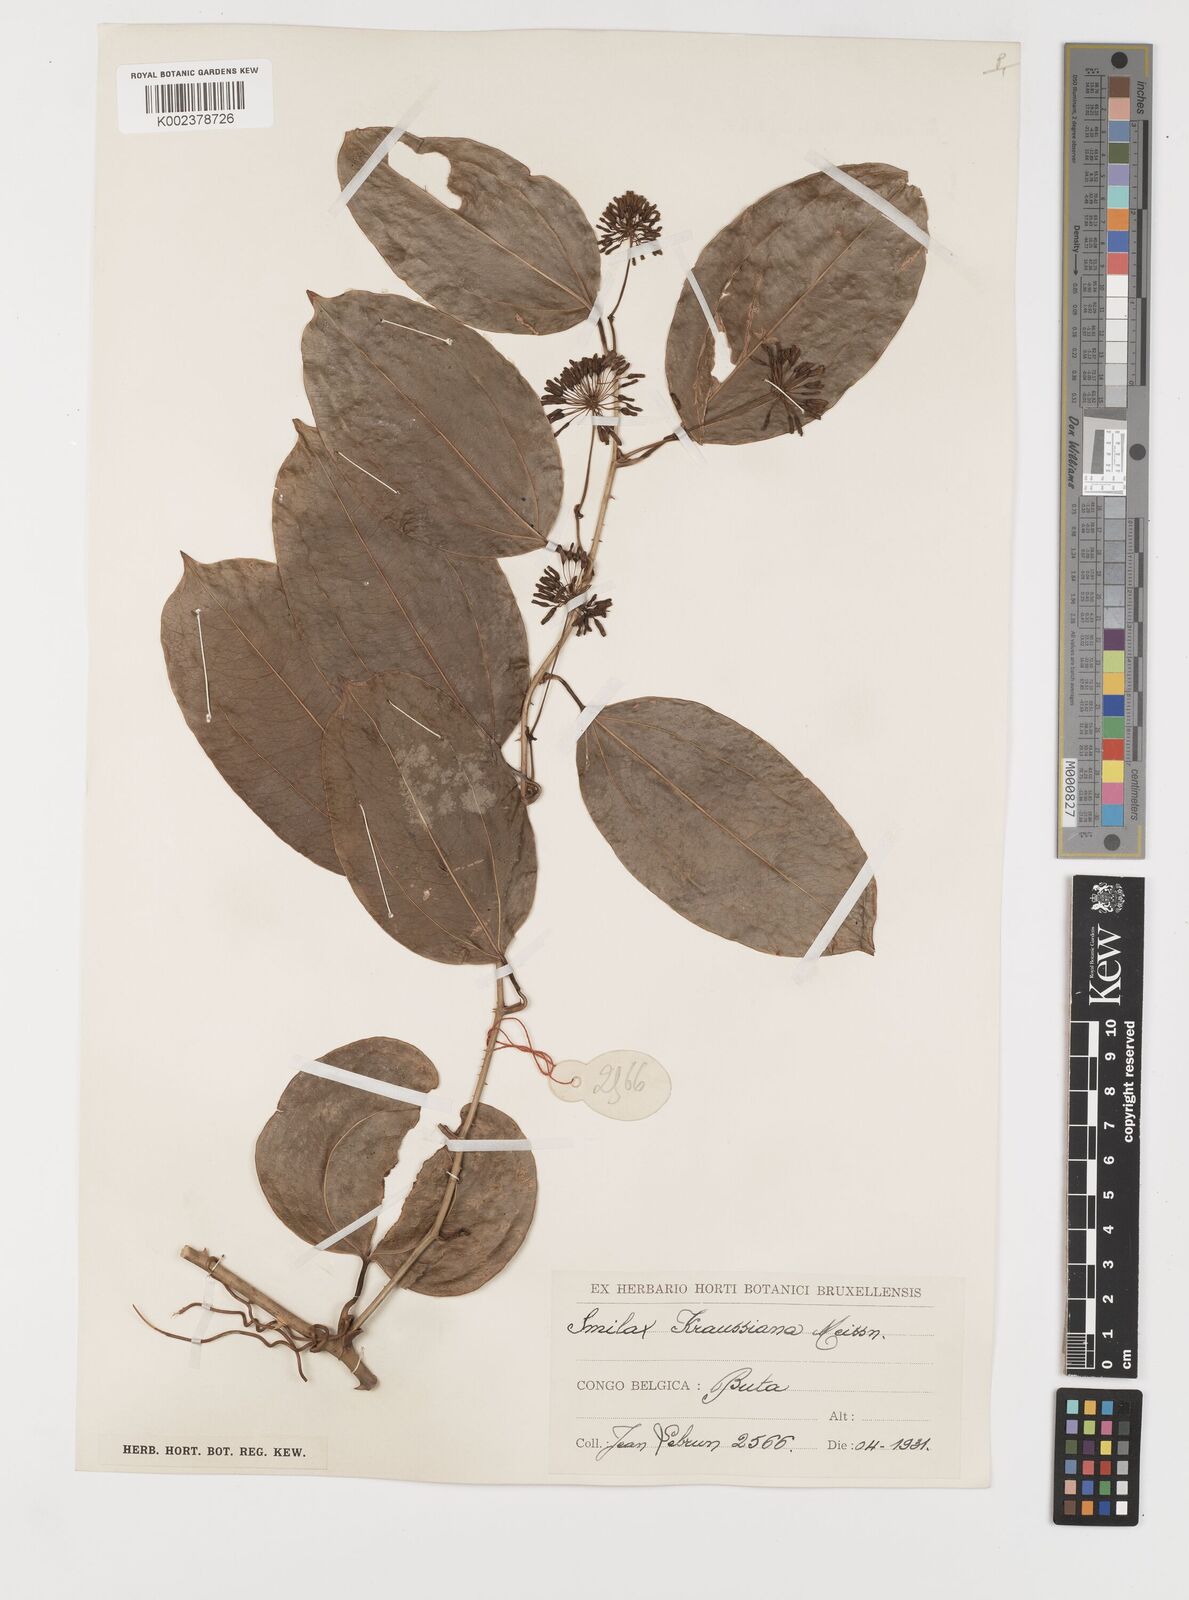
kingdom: Plantae
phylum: Tracheophyta
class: Liliopsida
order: Liliales
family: Smilacaceae
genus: Smilax
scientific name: Smilax anceps
